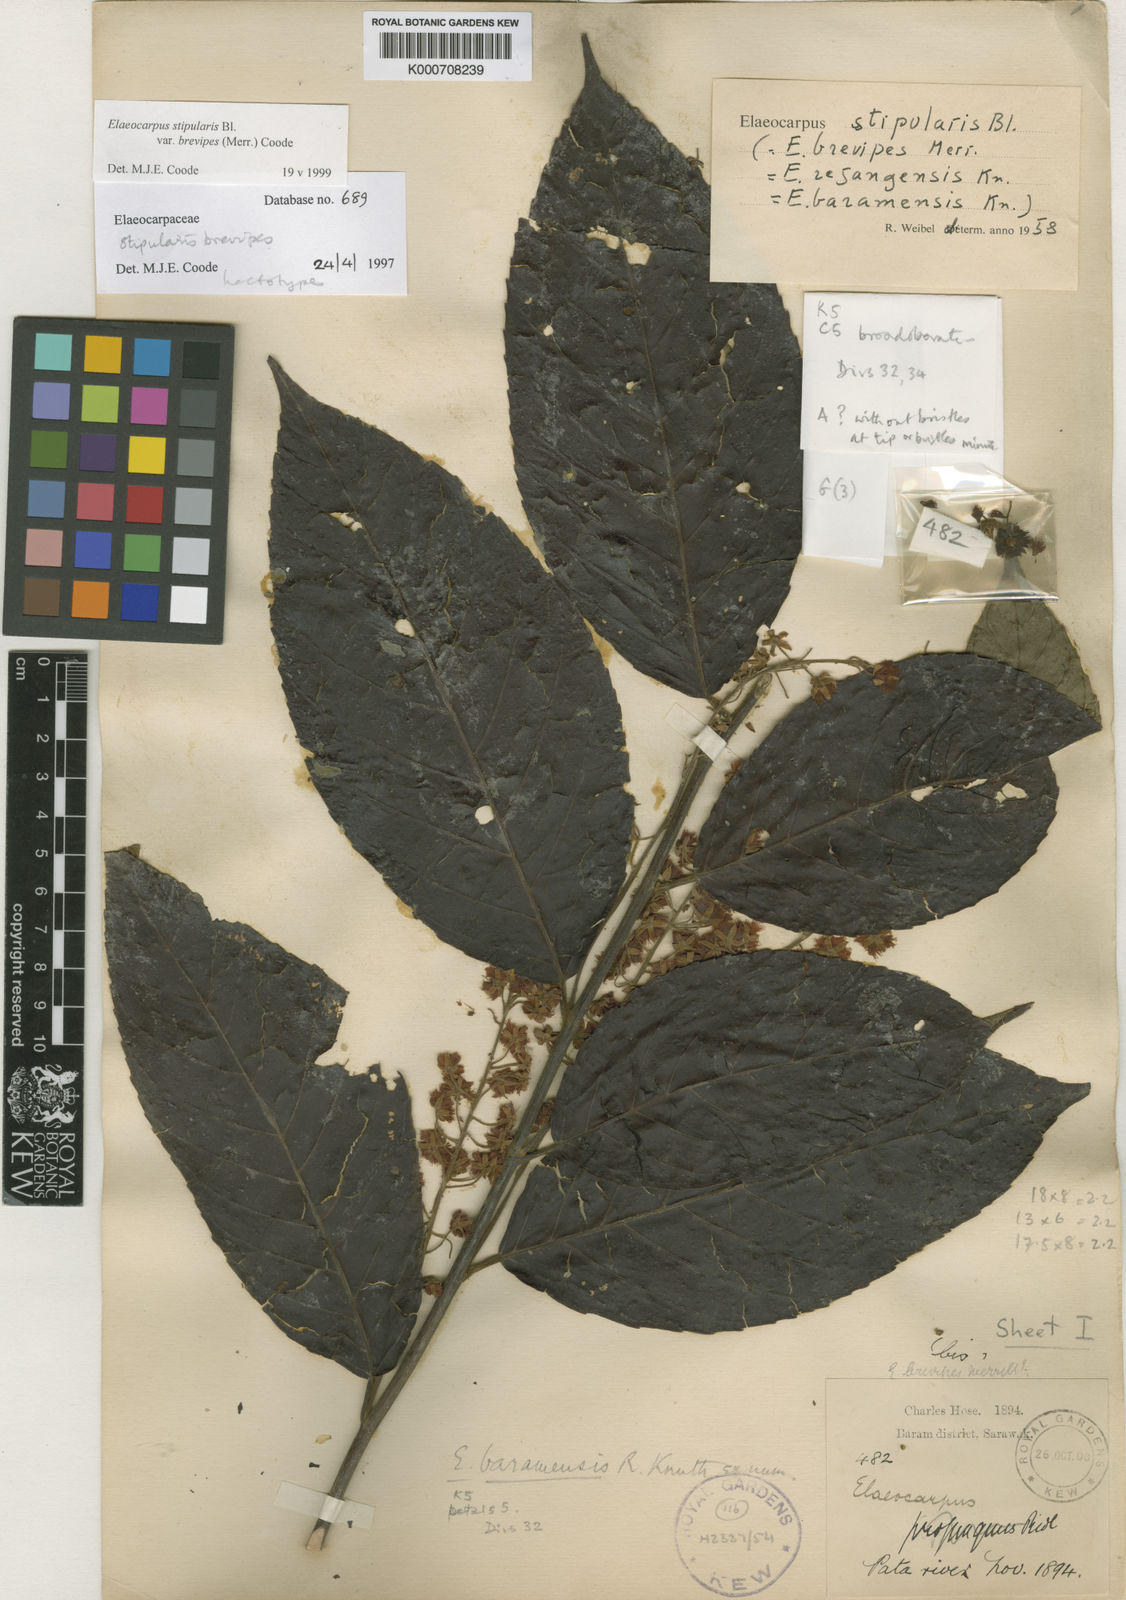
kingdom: Plantae
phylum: Tracheophyta
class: Magnoliopsida
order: Oxalidales
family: Elaeocarpaceae
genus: Elaeocarpus
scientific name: Elaeocarpus stipularis
